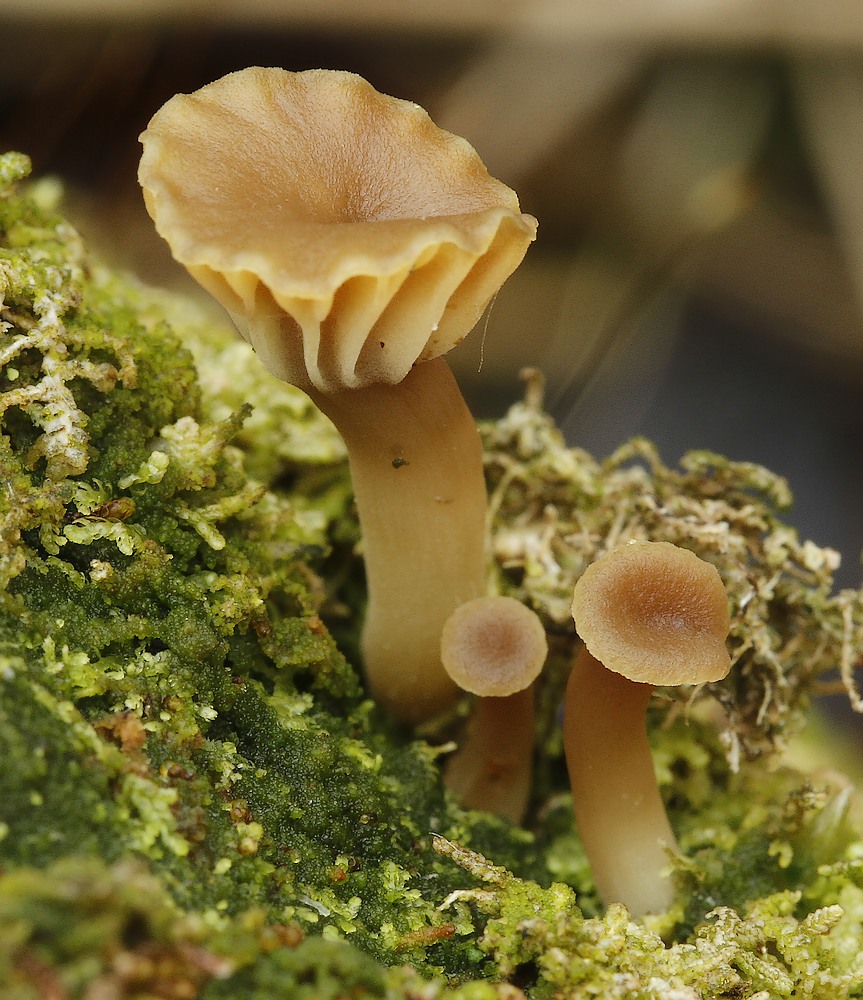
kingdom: Fungi
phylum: Basidiomycota
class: Agaricomycetes
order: Agaricales
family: Hygrophoraceae
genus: Lichenomphalia
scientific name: Lichenomphalia umbellifera
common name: tørve-lavhat
